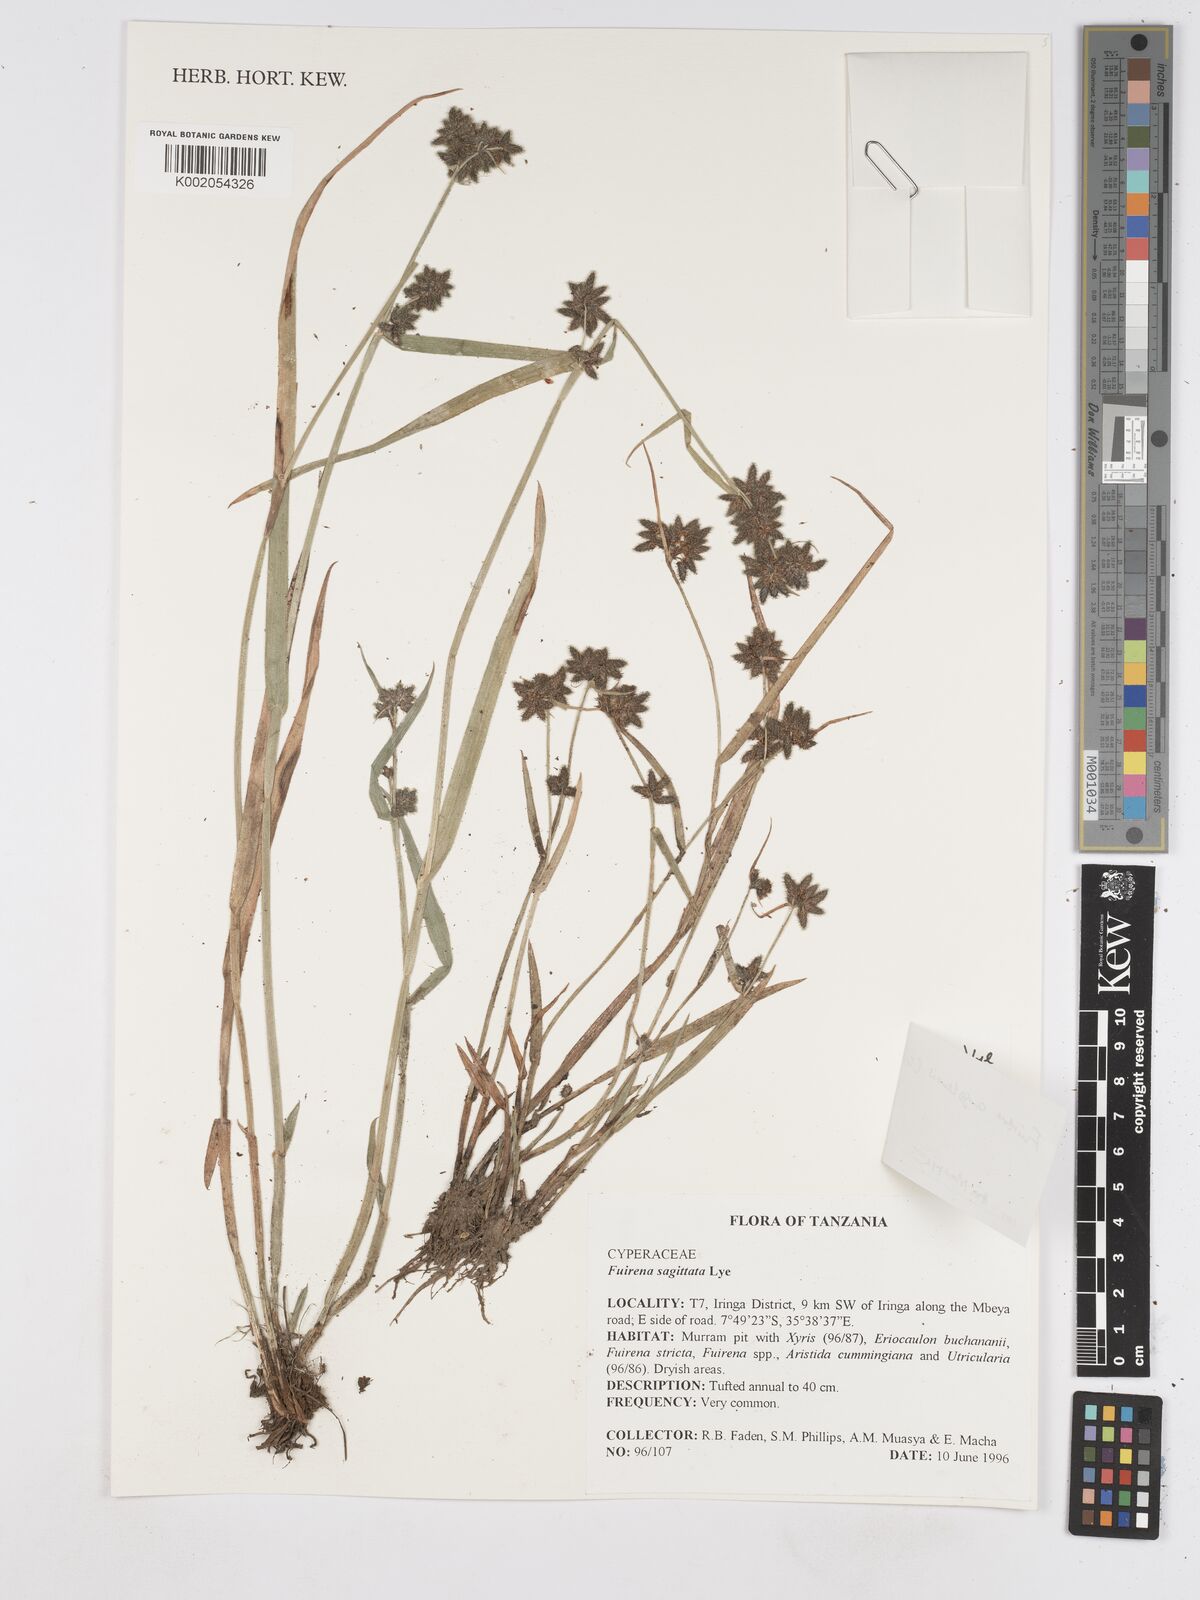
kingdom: Plantae
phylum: Tracheophyta
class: Liliopsida
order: Poales
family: Cyperaceae
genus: Fuirena
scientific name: Fuirena angolensis
